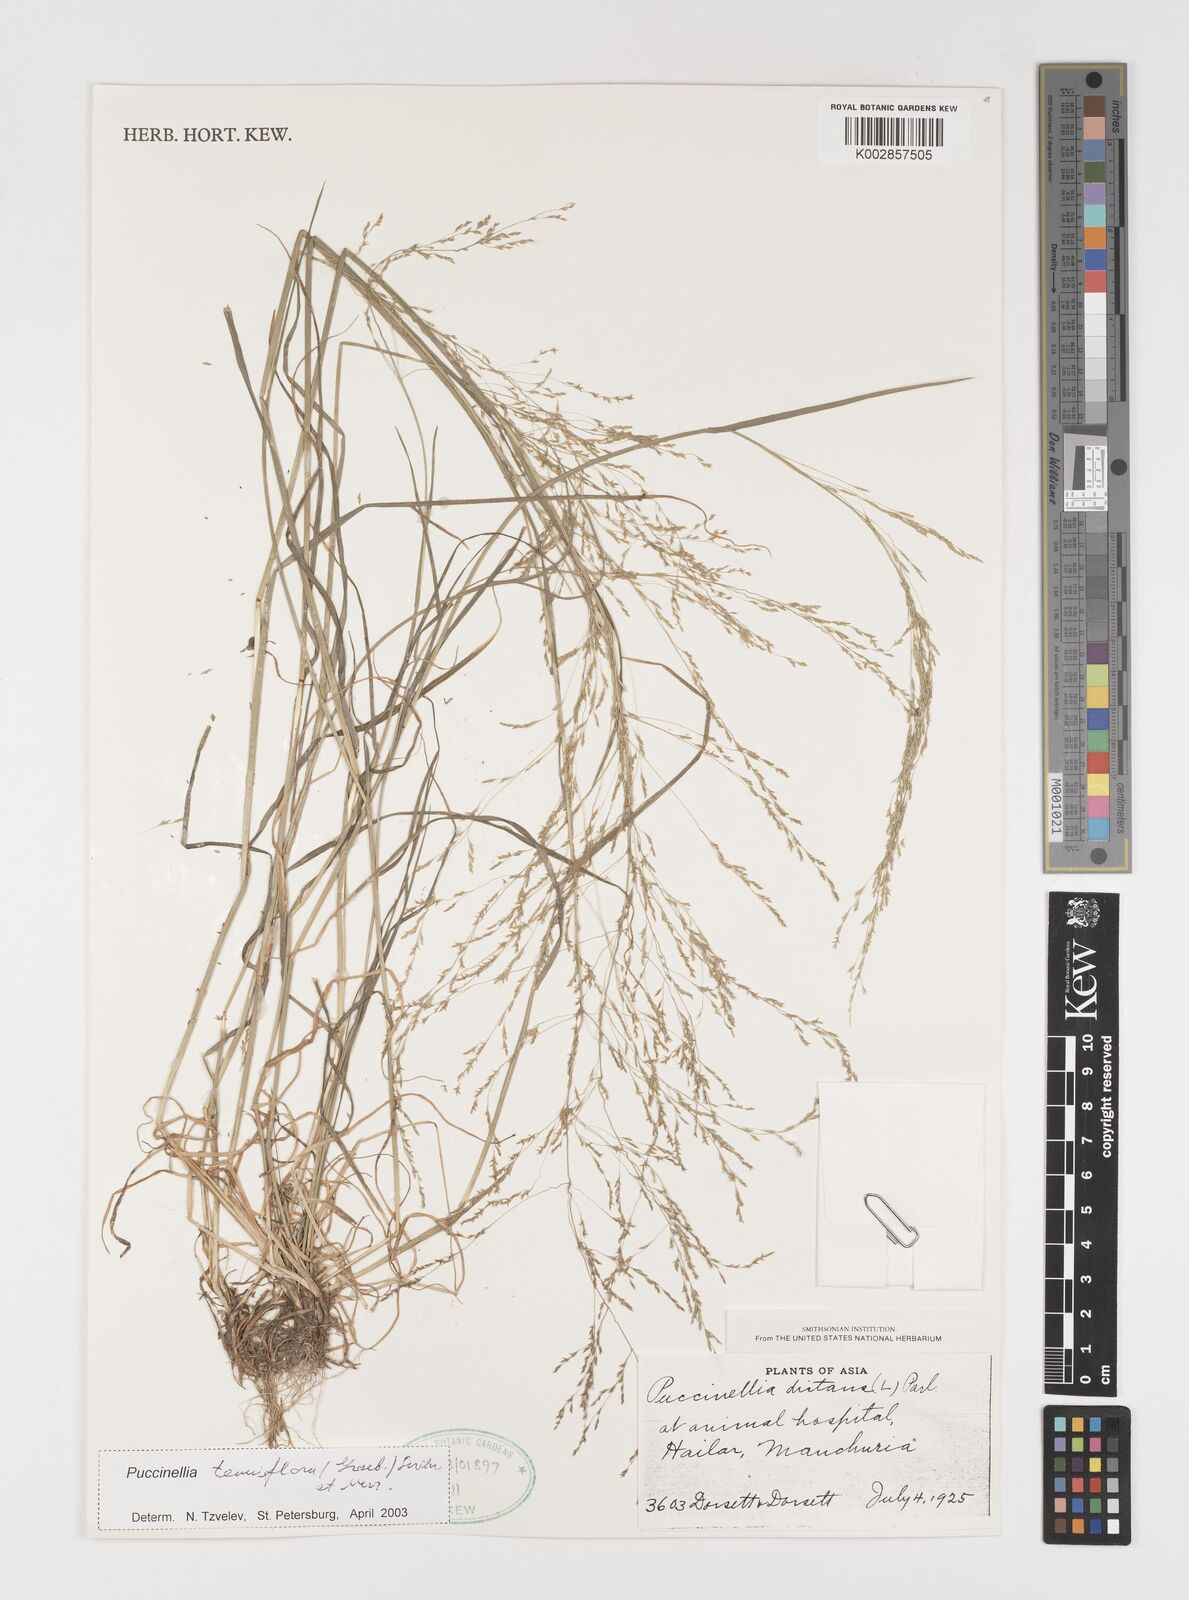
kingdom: Plantae
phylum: Tracheophyta
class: Liliopsida
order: Poales
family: Poaceae
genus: Puccinellia
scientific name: Puccinellia tenuiflora
